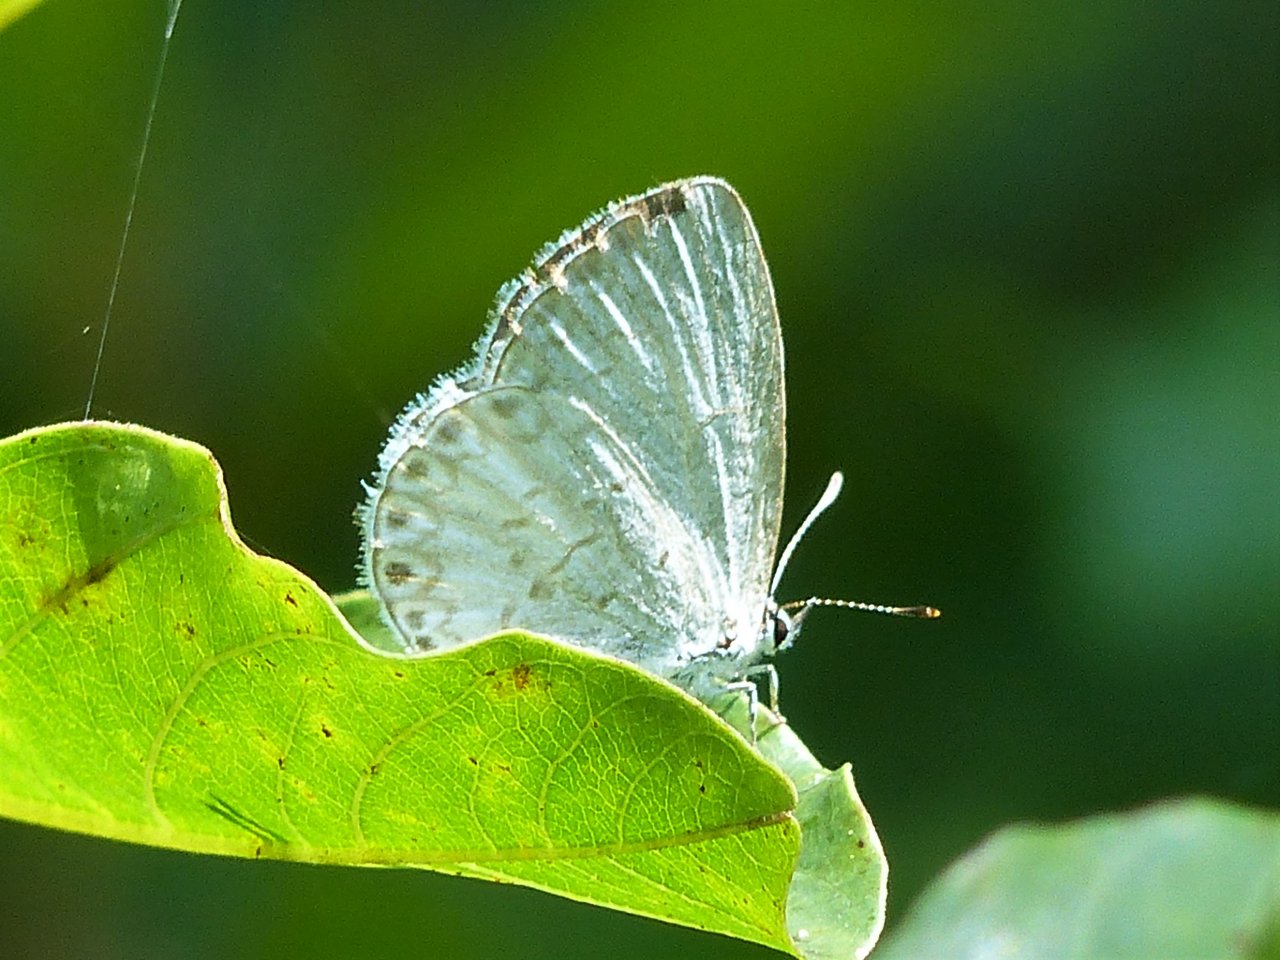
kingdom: Animalia
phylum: Arthropoda
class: Insecta
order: Lepidoptera
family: Lycaenidae
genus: Celastrina
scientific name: Celastrina lucia
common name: Northern Spring Azure
